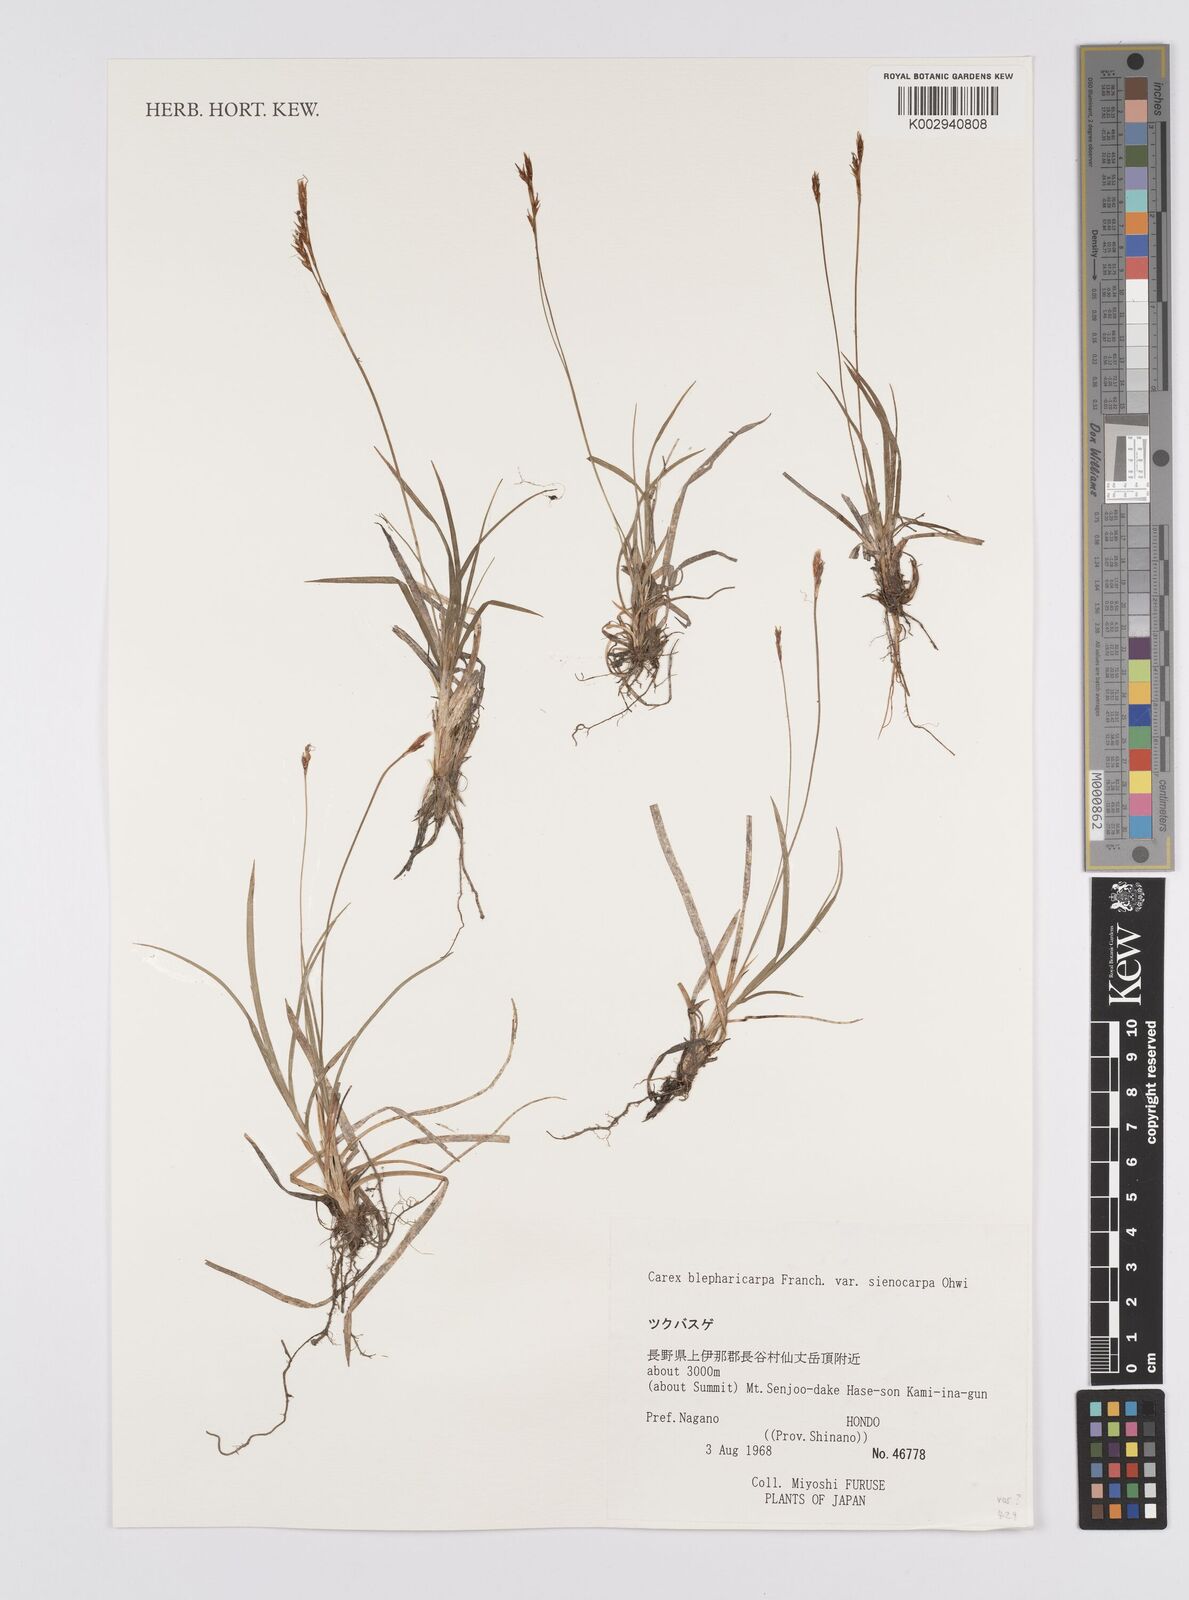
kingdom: Plantae
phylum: Tracheophyta
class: Liliopsida
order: Poales
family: Cyperaceae
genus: Carex
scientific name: Carex blepharicarpa
